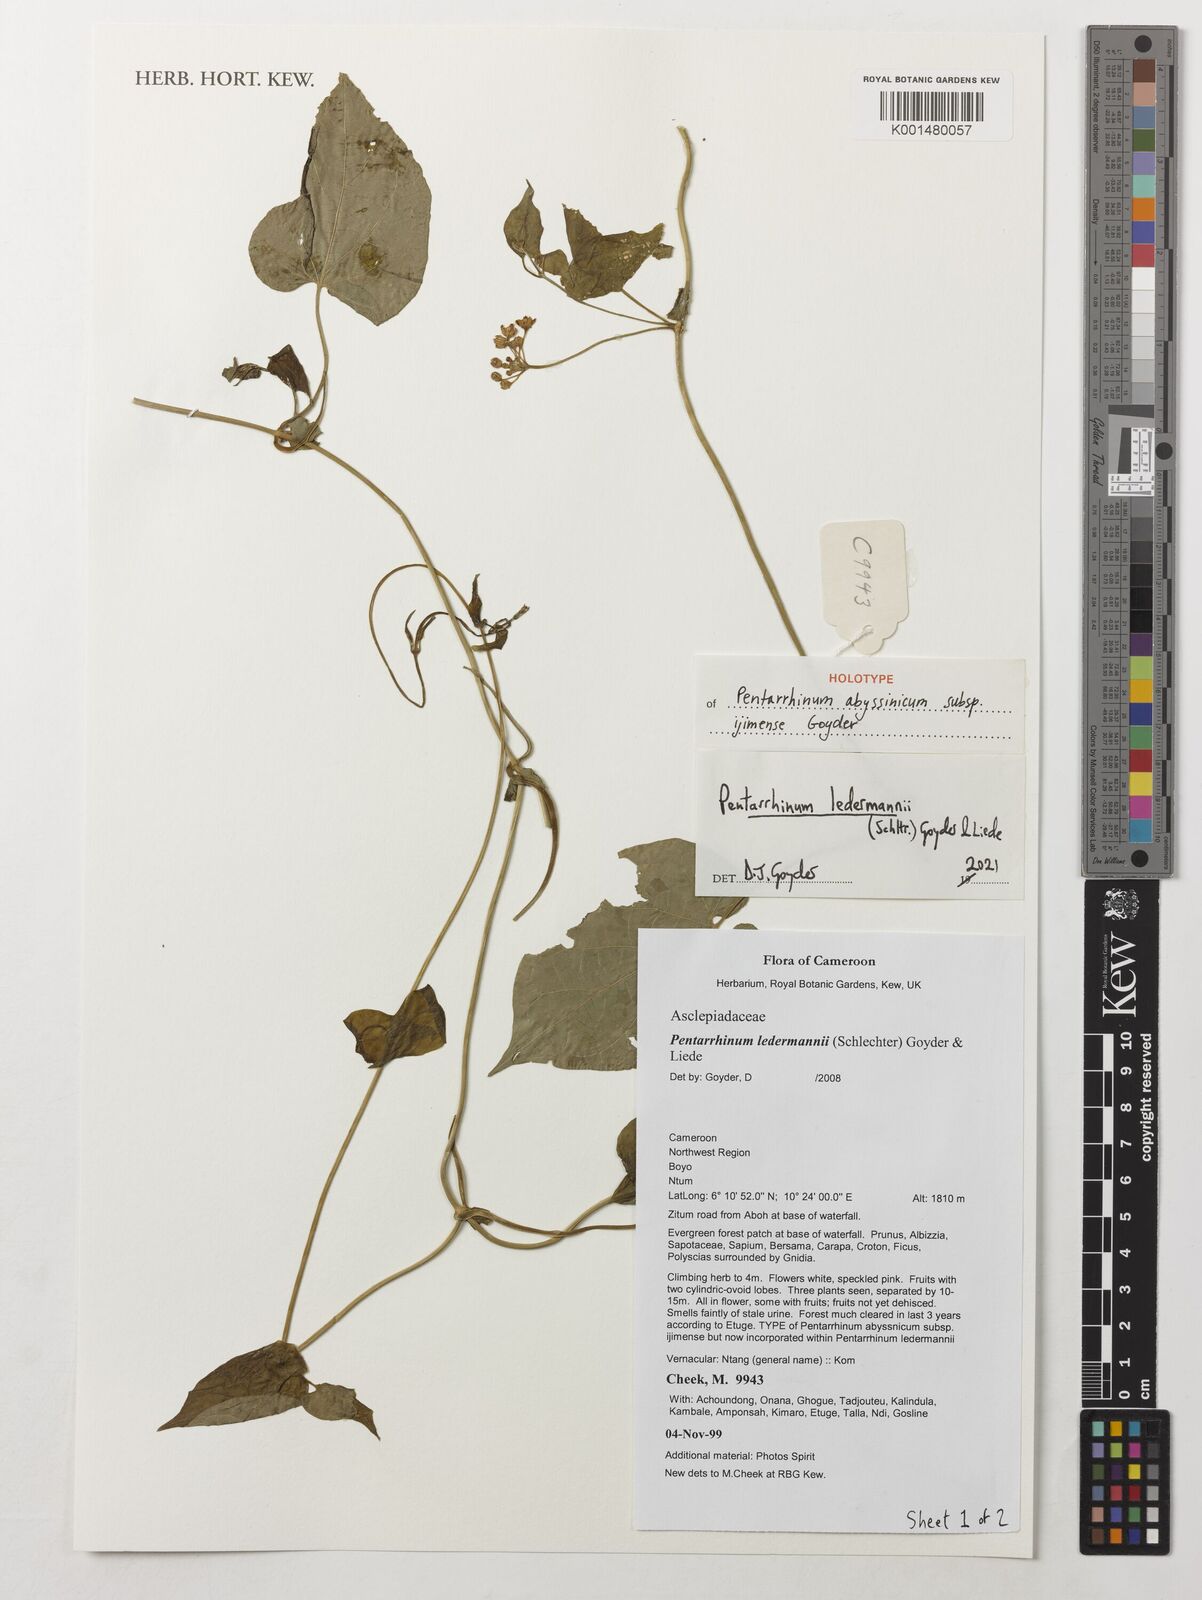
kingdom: Plantae
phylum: Tracheophyta
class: Magnoliopsida
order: Gentianales
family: Apocynaceae
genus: Cynanchum
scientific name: Cynanchum ledermannii
